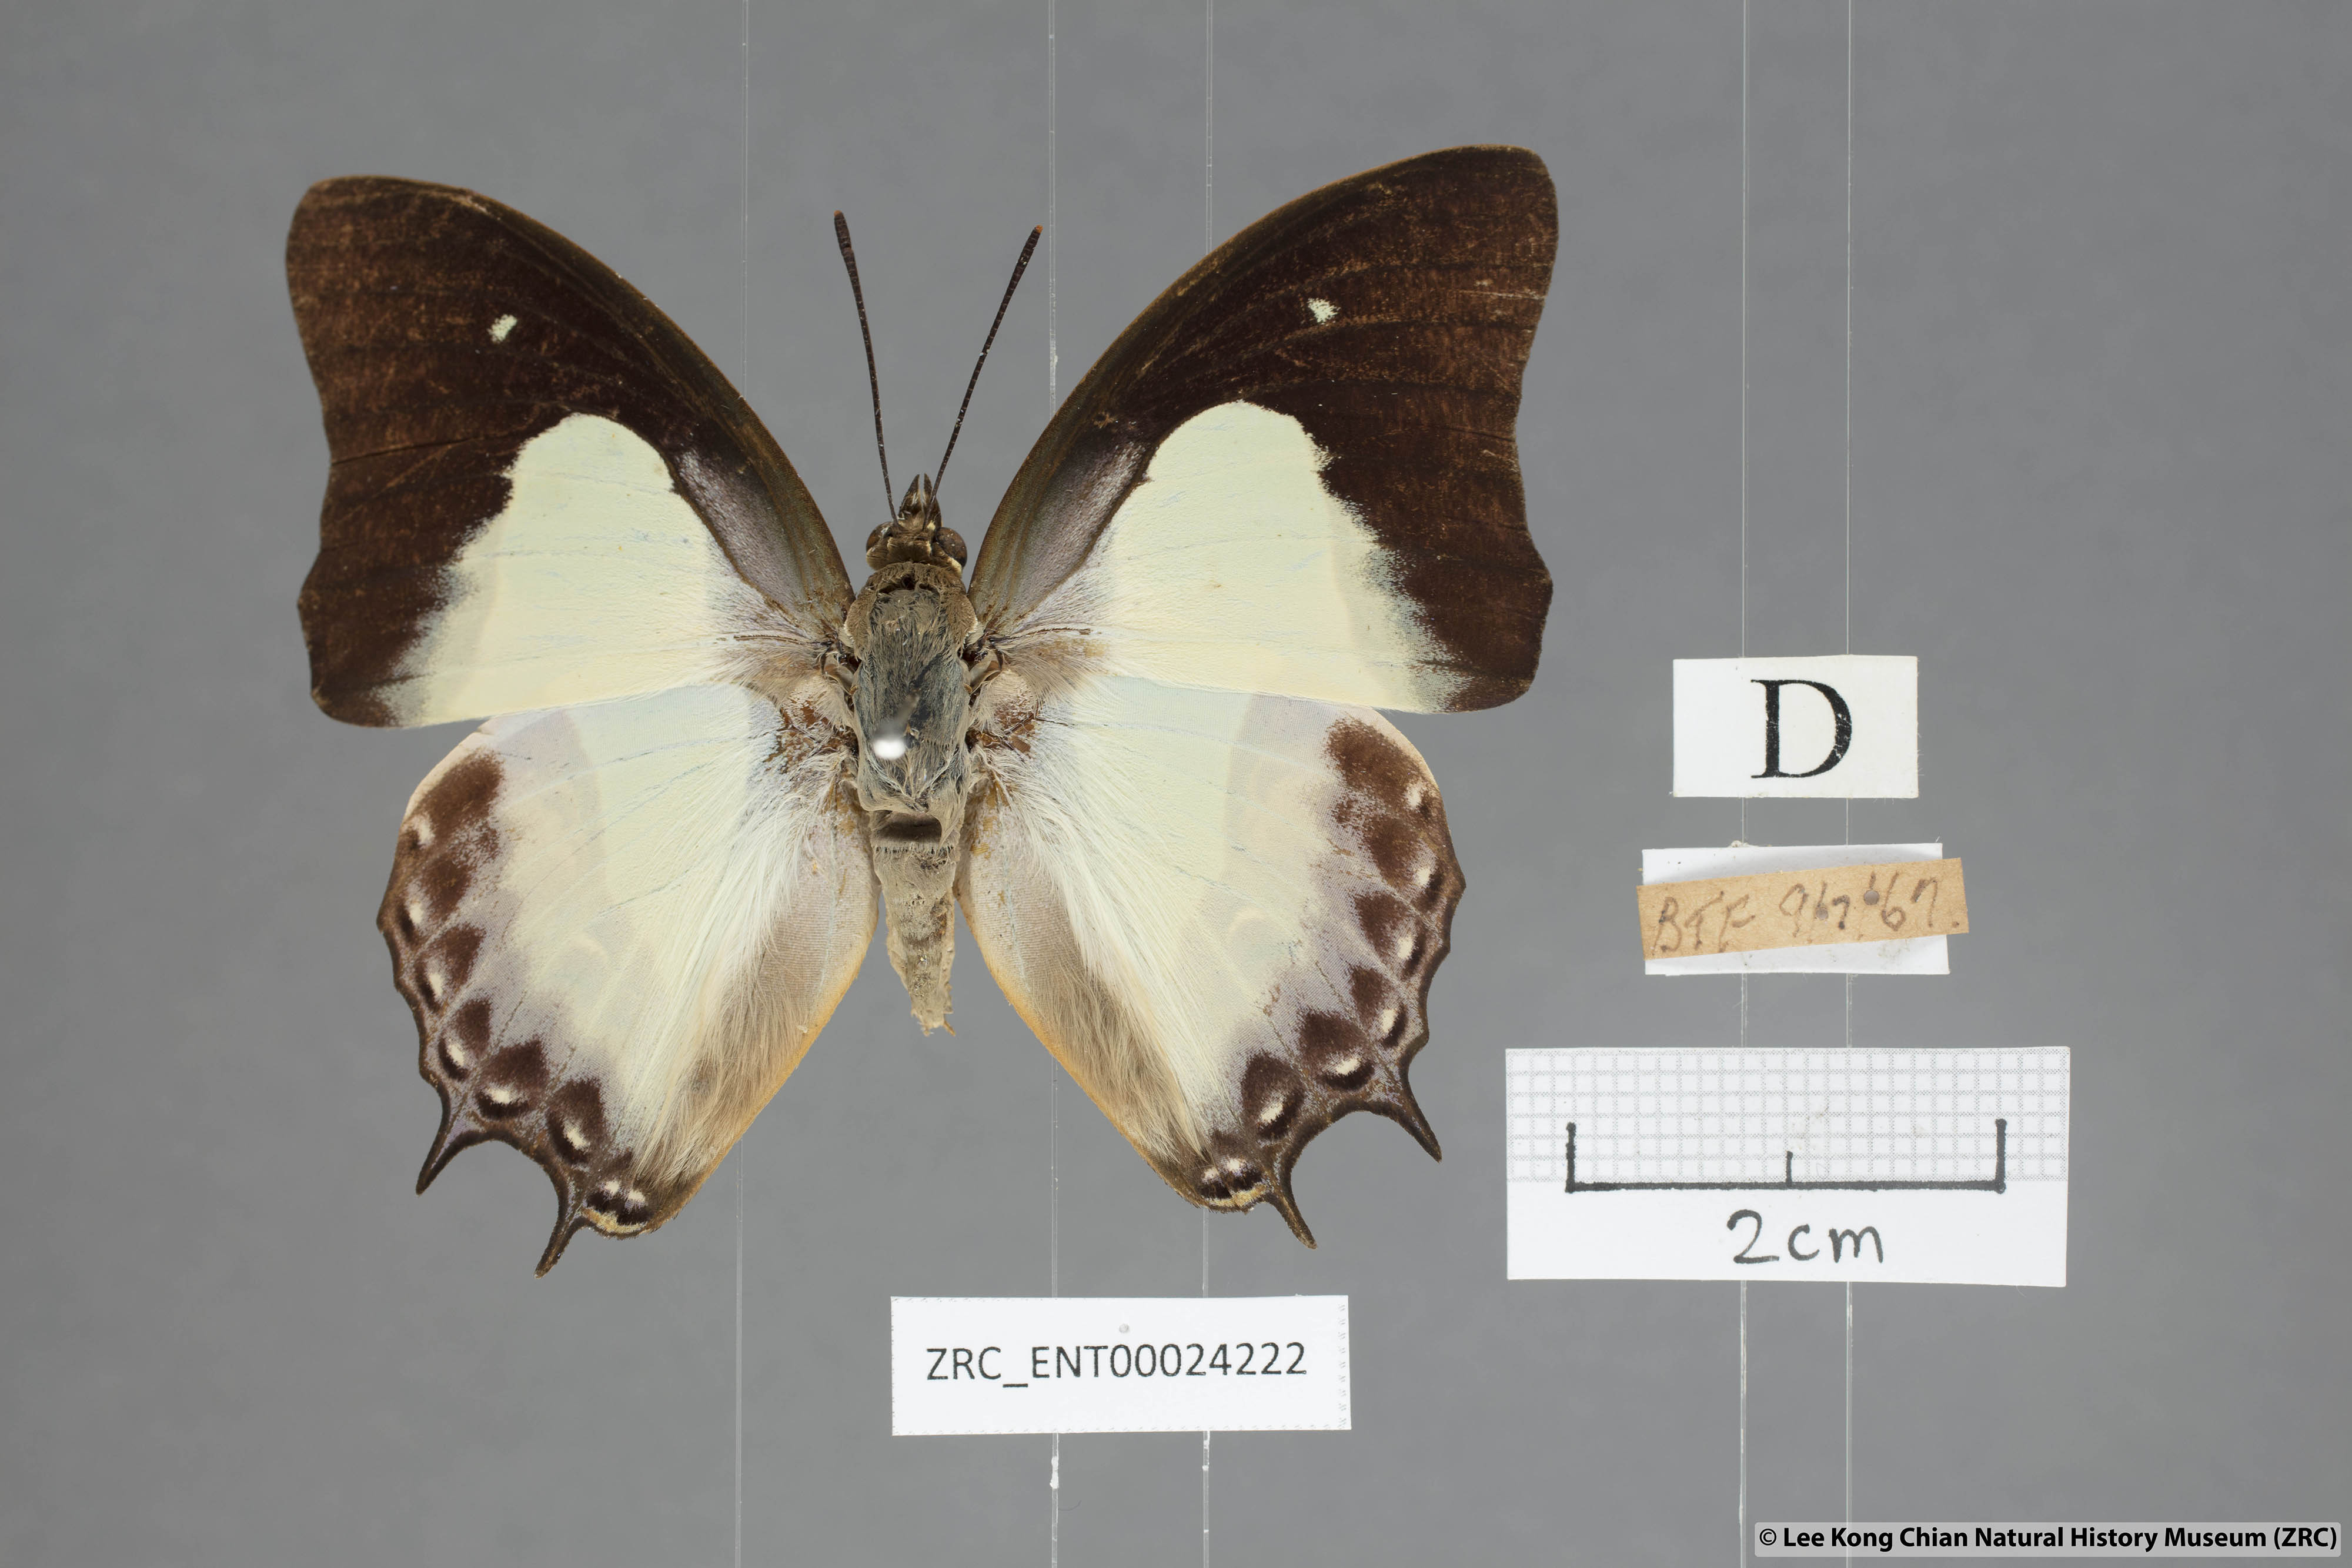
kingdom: Animalia
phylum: Arthropoda
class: Insecta
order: Lepidoptera
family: Nymphalidae
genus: Polyura
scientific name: Polyura hebe
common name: Plain nawab
